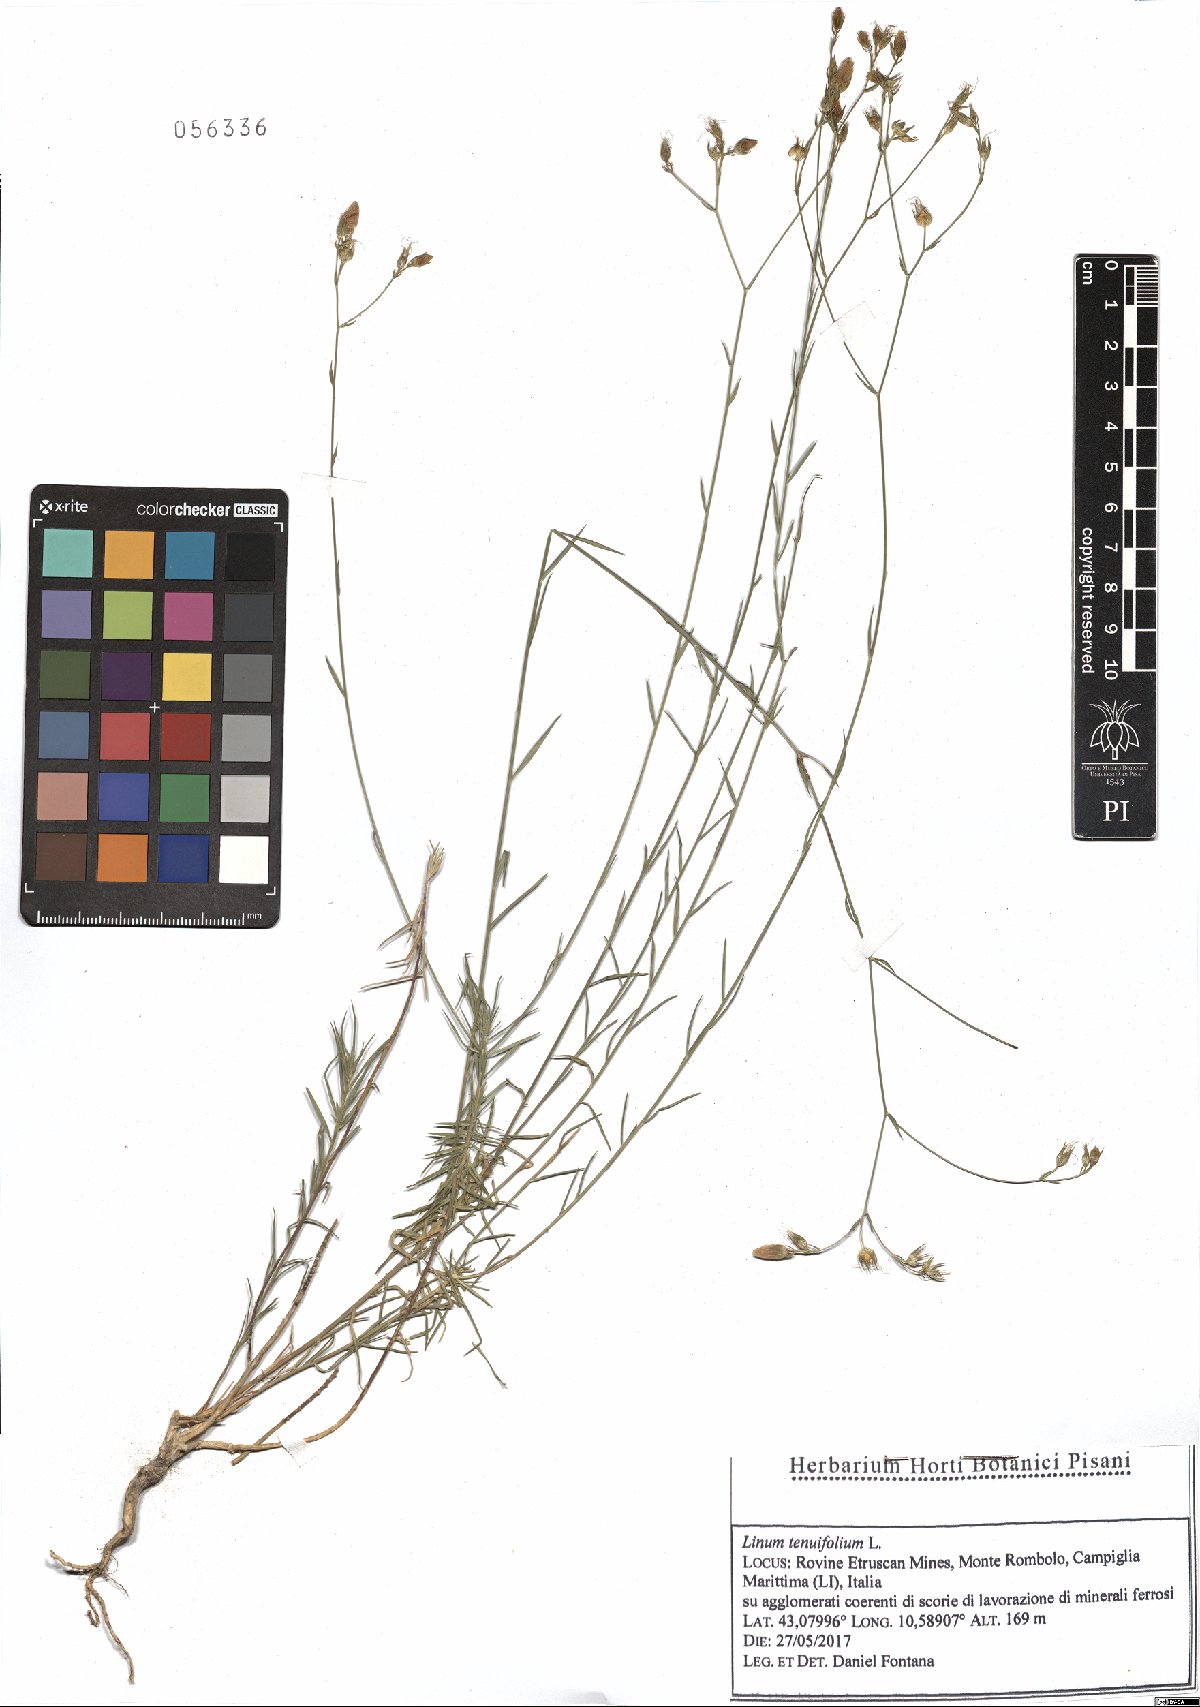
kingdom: Plantae
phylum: Tracheophyta
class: Magnoliopsida
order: Malpighiales
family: Linaceae
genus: Linum
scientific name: Linum tenuifolium
